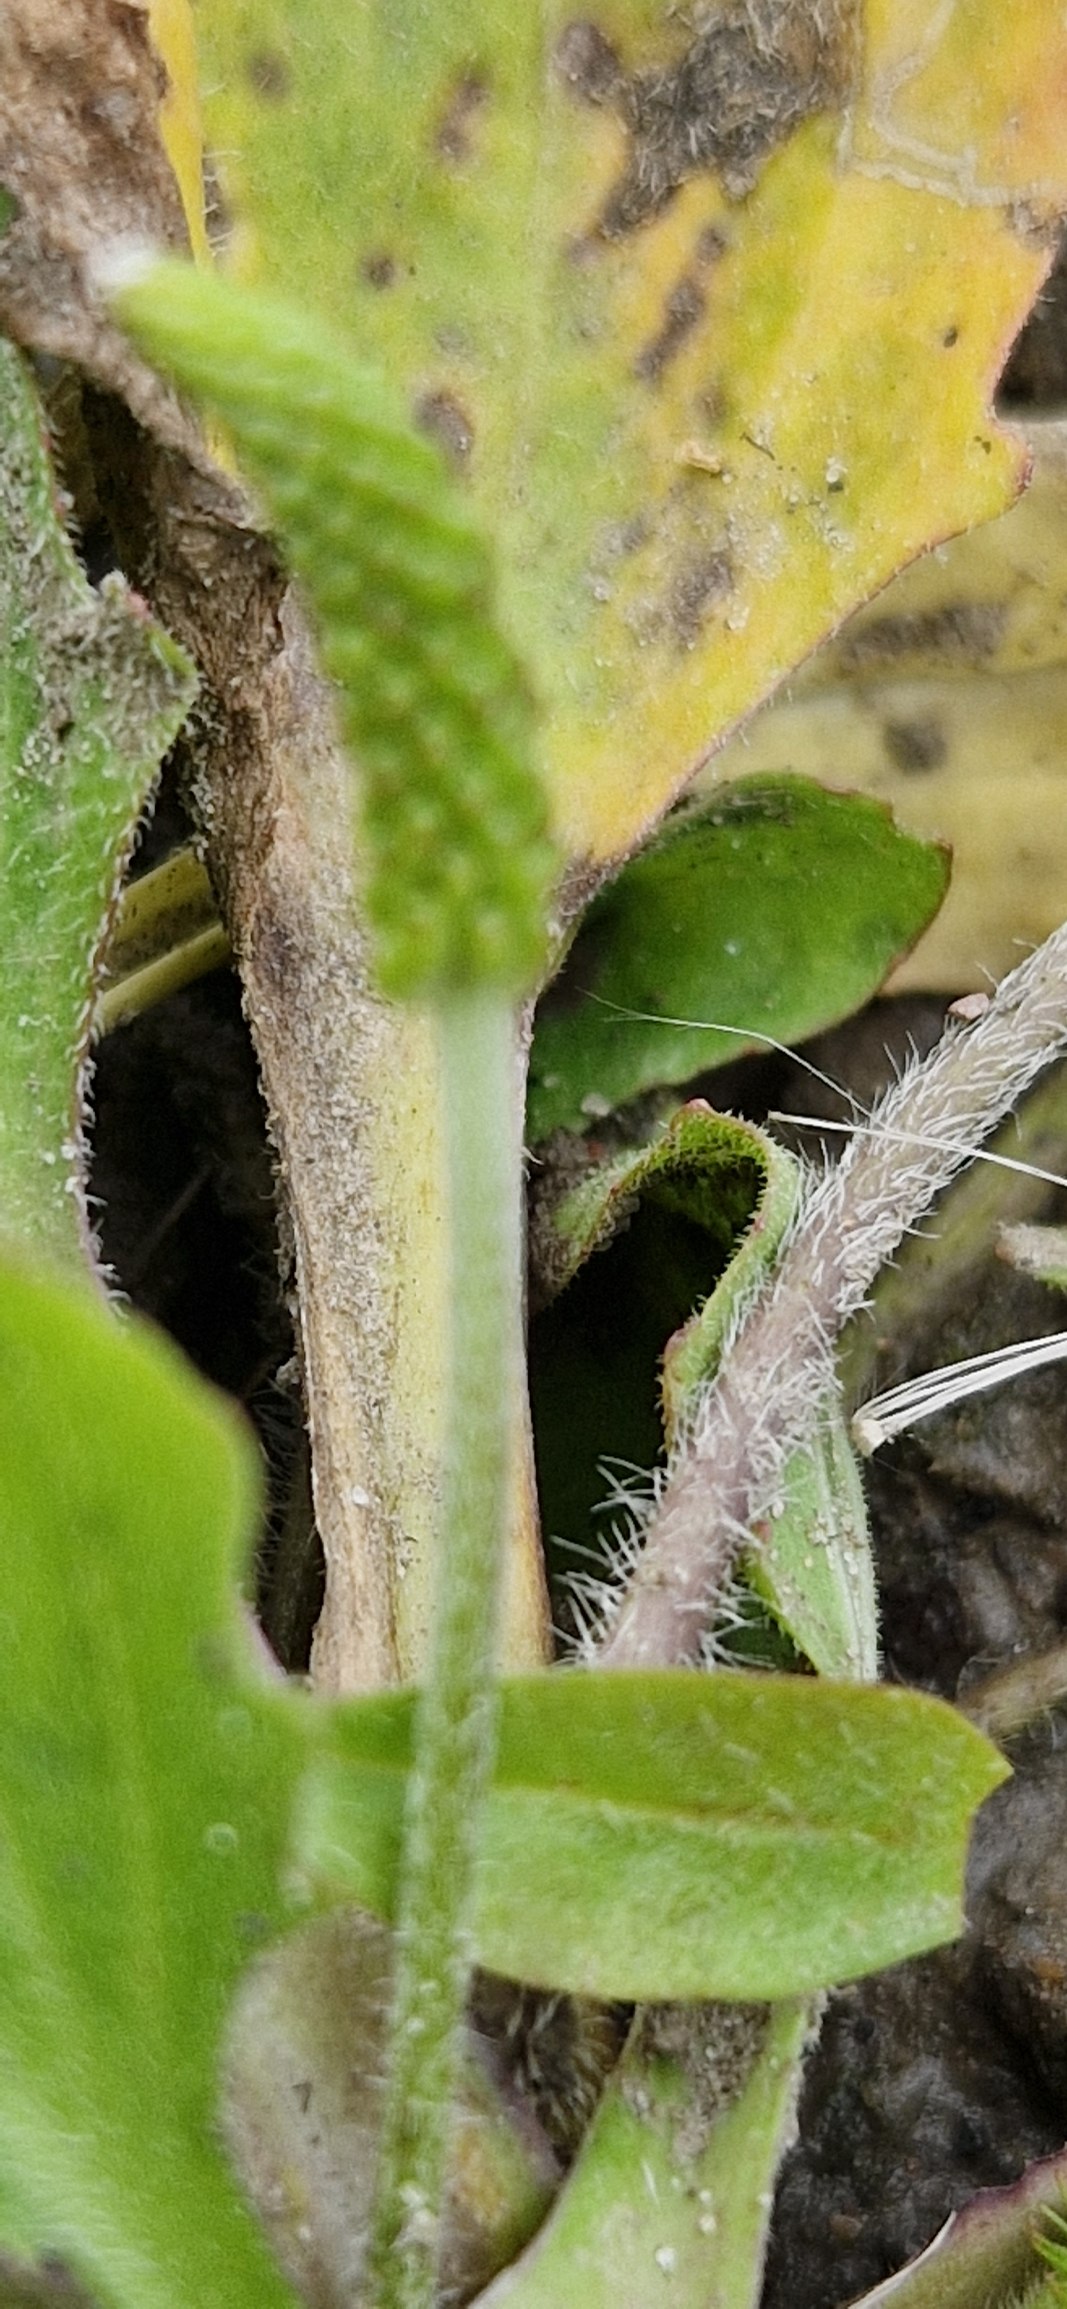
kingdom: Plantae
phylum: Tracheophyta
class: Magnoliopsida
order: Lamiales
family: Plantaginaceae
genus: Plantago
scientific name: Plantago uliginosa
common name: Ager-vejbred
